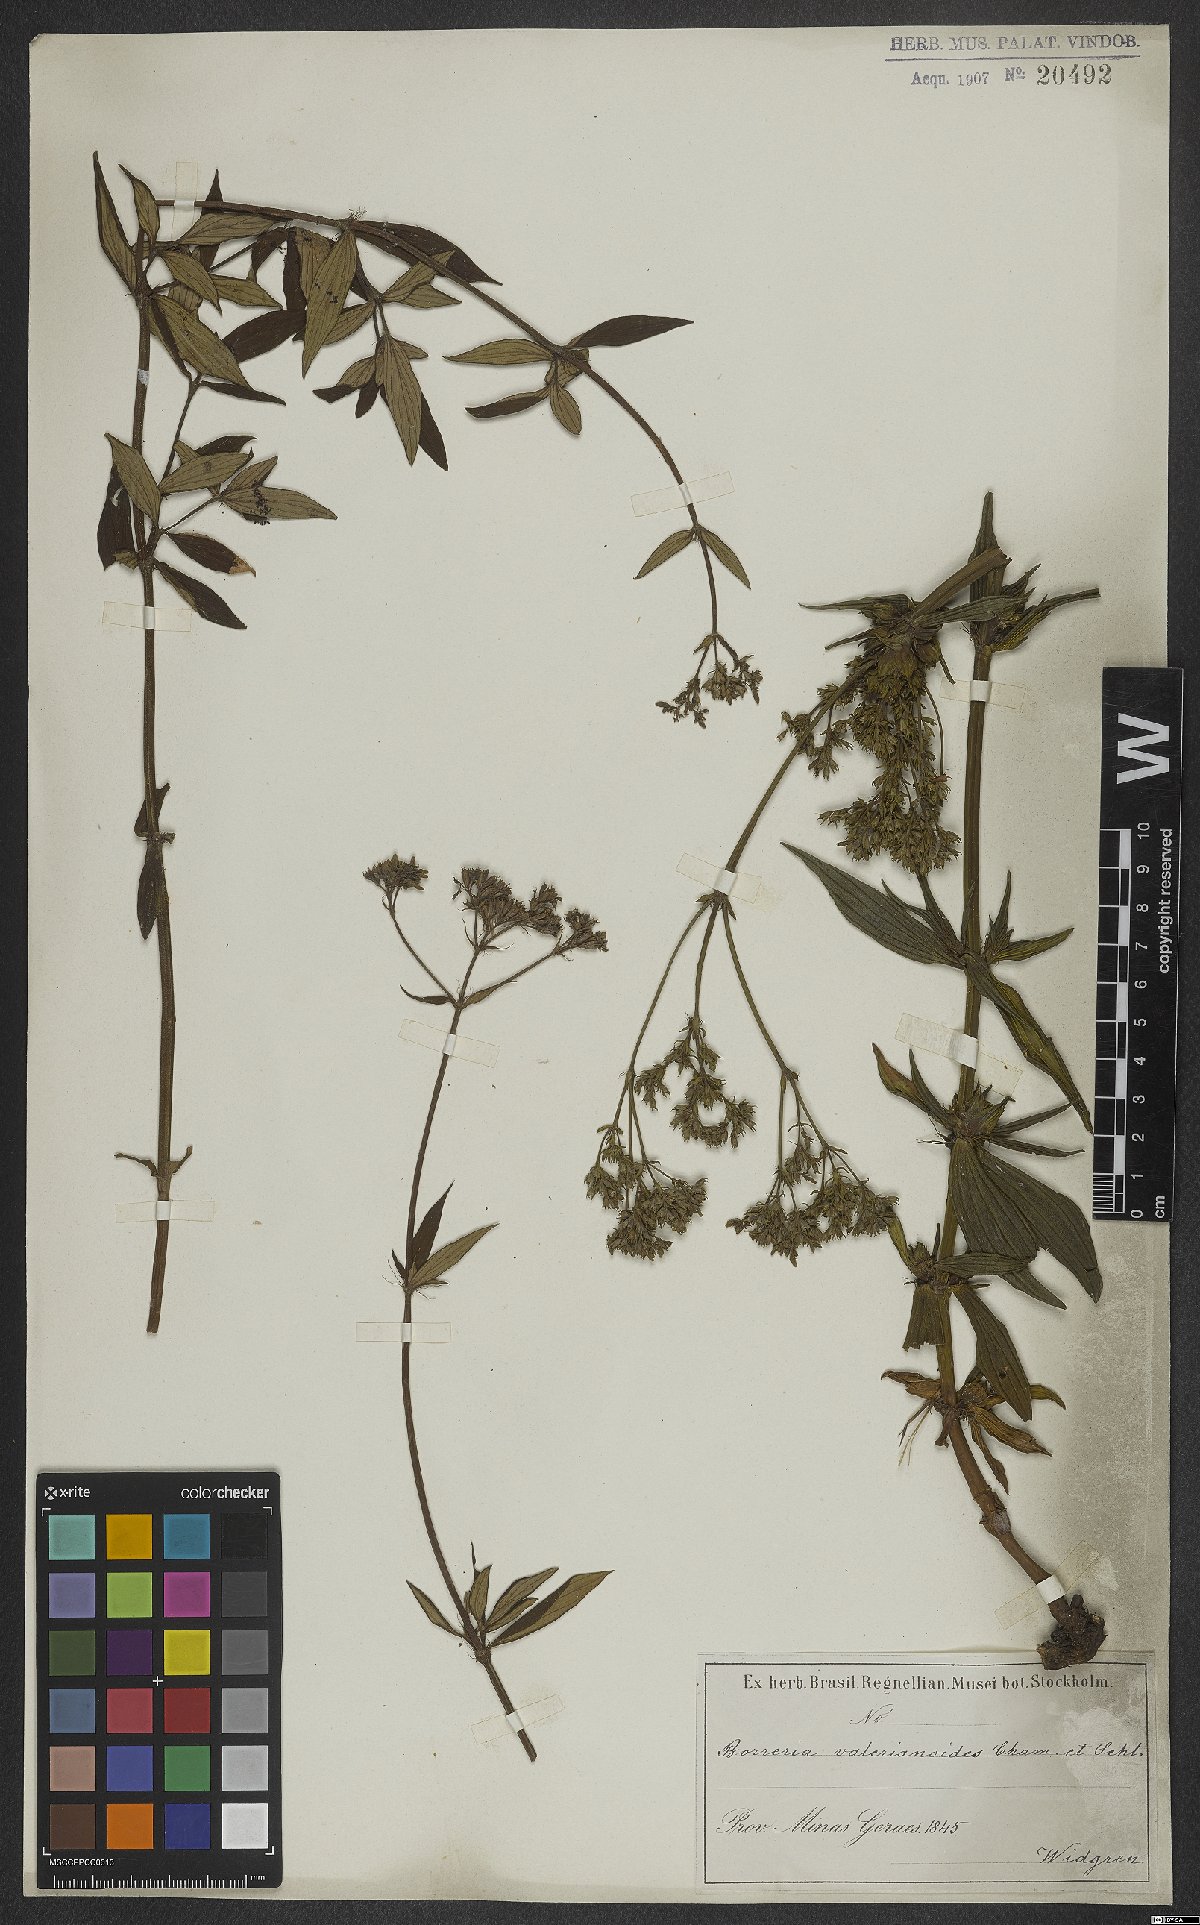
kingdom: Plantae
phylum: Tracheophyta
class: Magnoliopsida
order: Gentianales
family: Rubiaceae
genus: Galianthe
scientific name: Galianthe valerianoides
